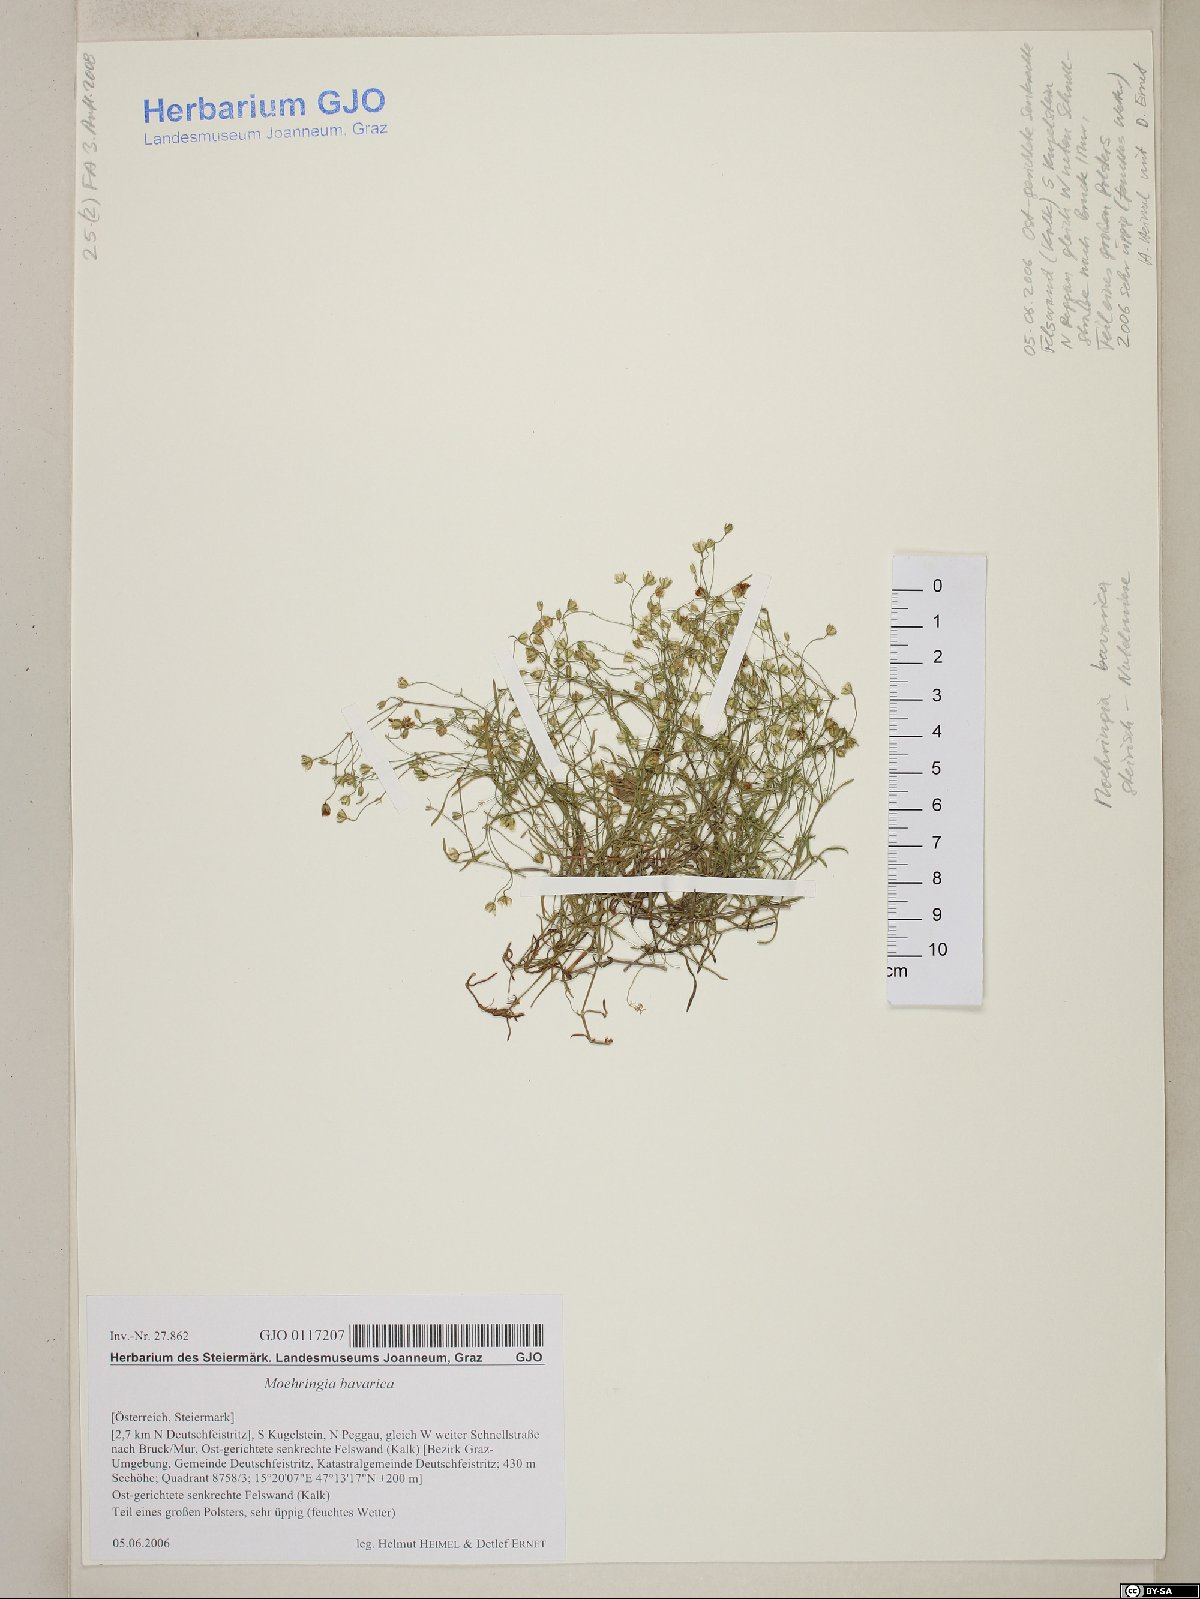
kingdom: Plantae
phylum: Tracheophyta
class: Magnoliopsida
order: Caryophyllales
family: Caryophyllaceae
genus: Moehringia
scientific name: Moehringia bavarica
